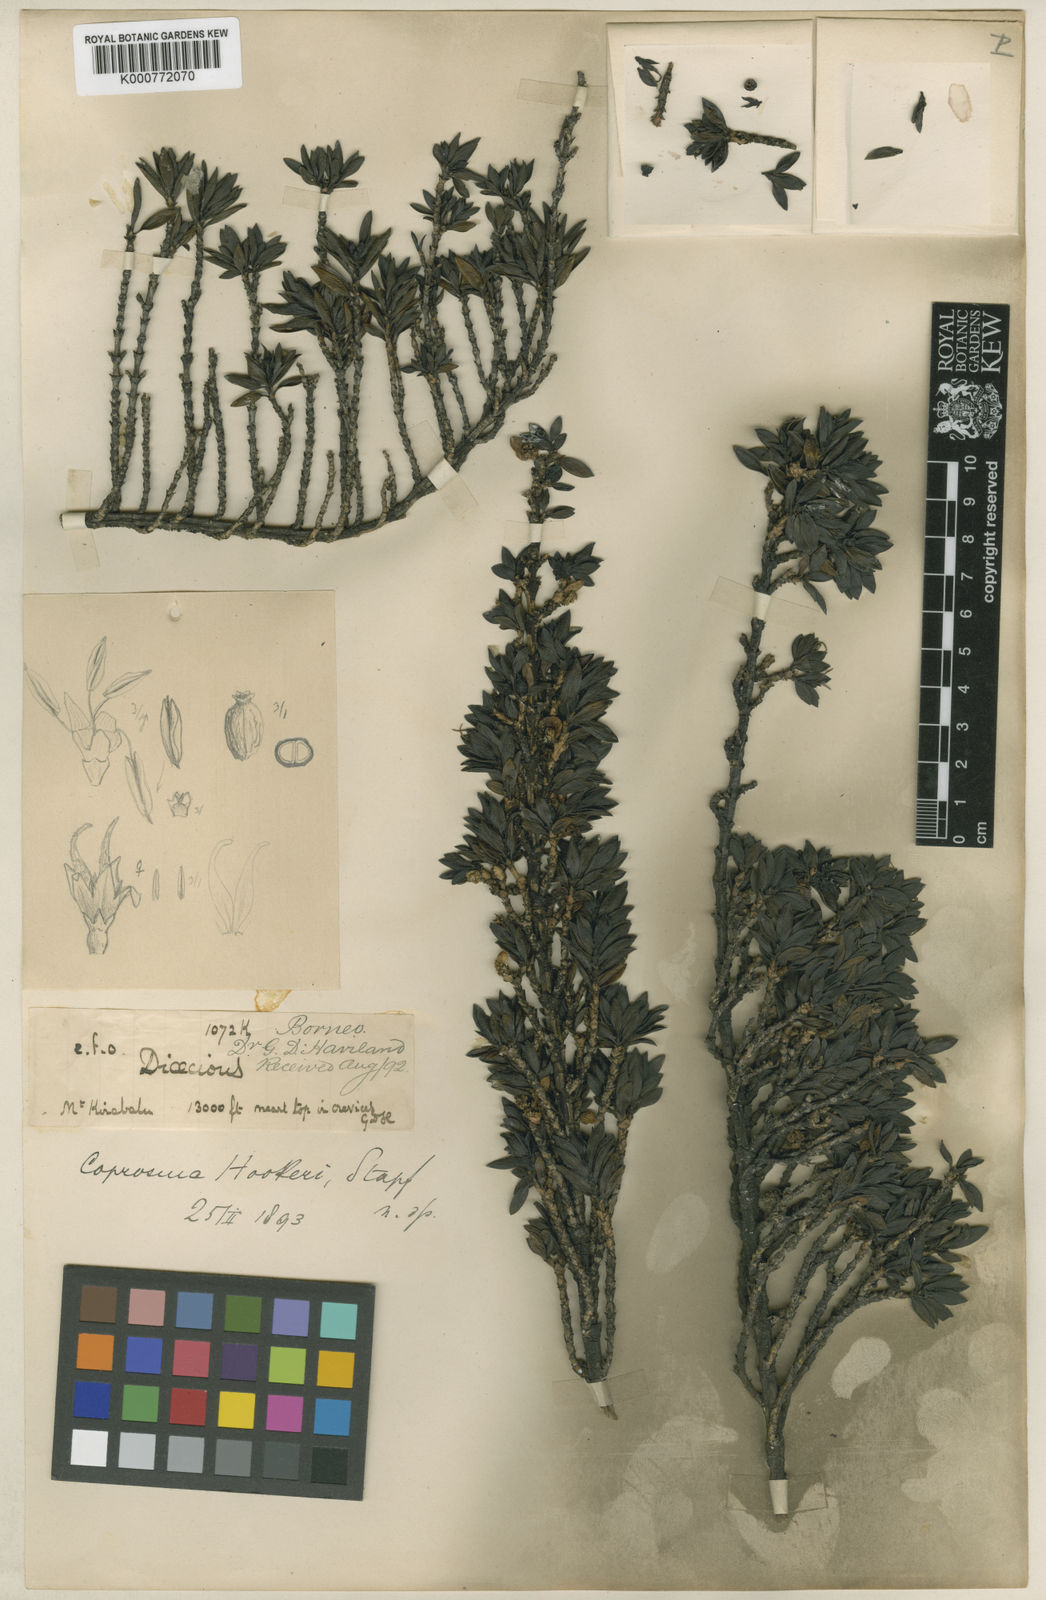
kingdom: Plantae
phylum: Tracheophyta
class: Magnoliopsida
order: Gentianales
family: Rubiaceae
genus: Coprosma
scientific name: Coprosma hookeri
